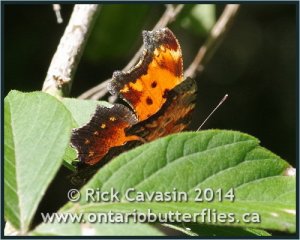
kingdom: Animalia
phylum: Arthropoda
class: Insecta
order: Lepidoptera
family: Nymphalidae
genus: Polygonia
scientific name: Polygonia progne
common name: Gray Comma
